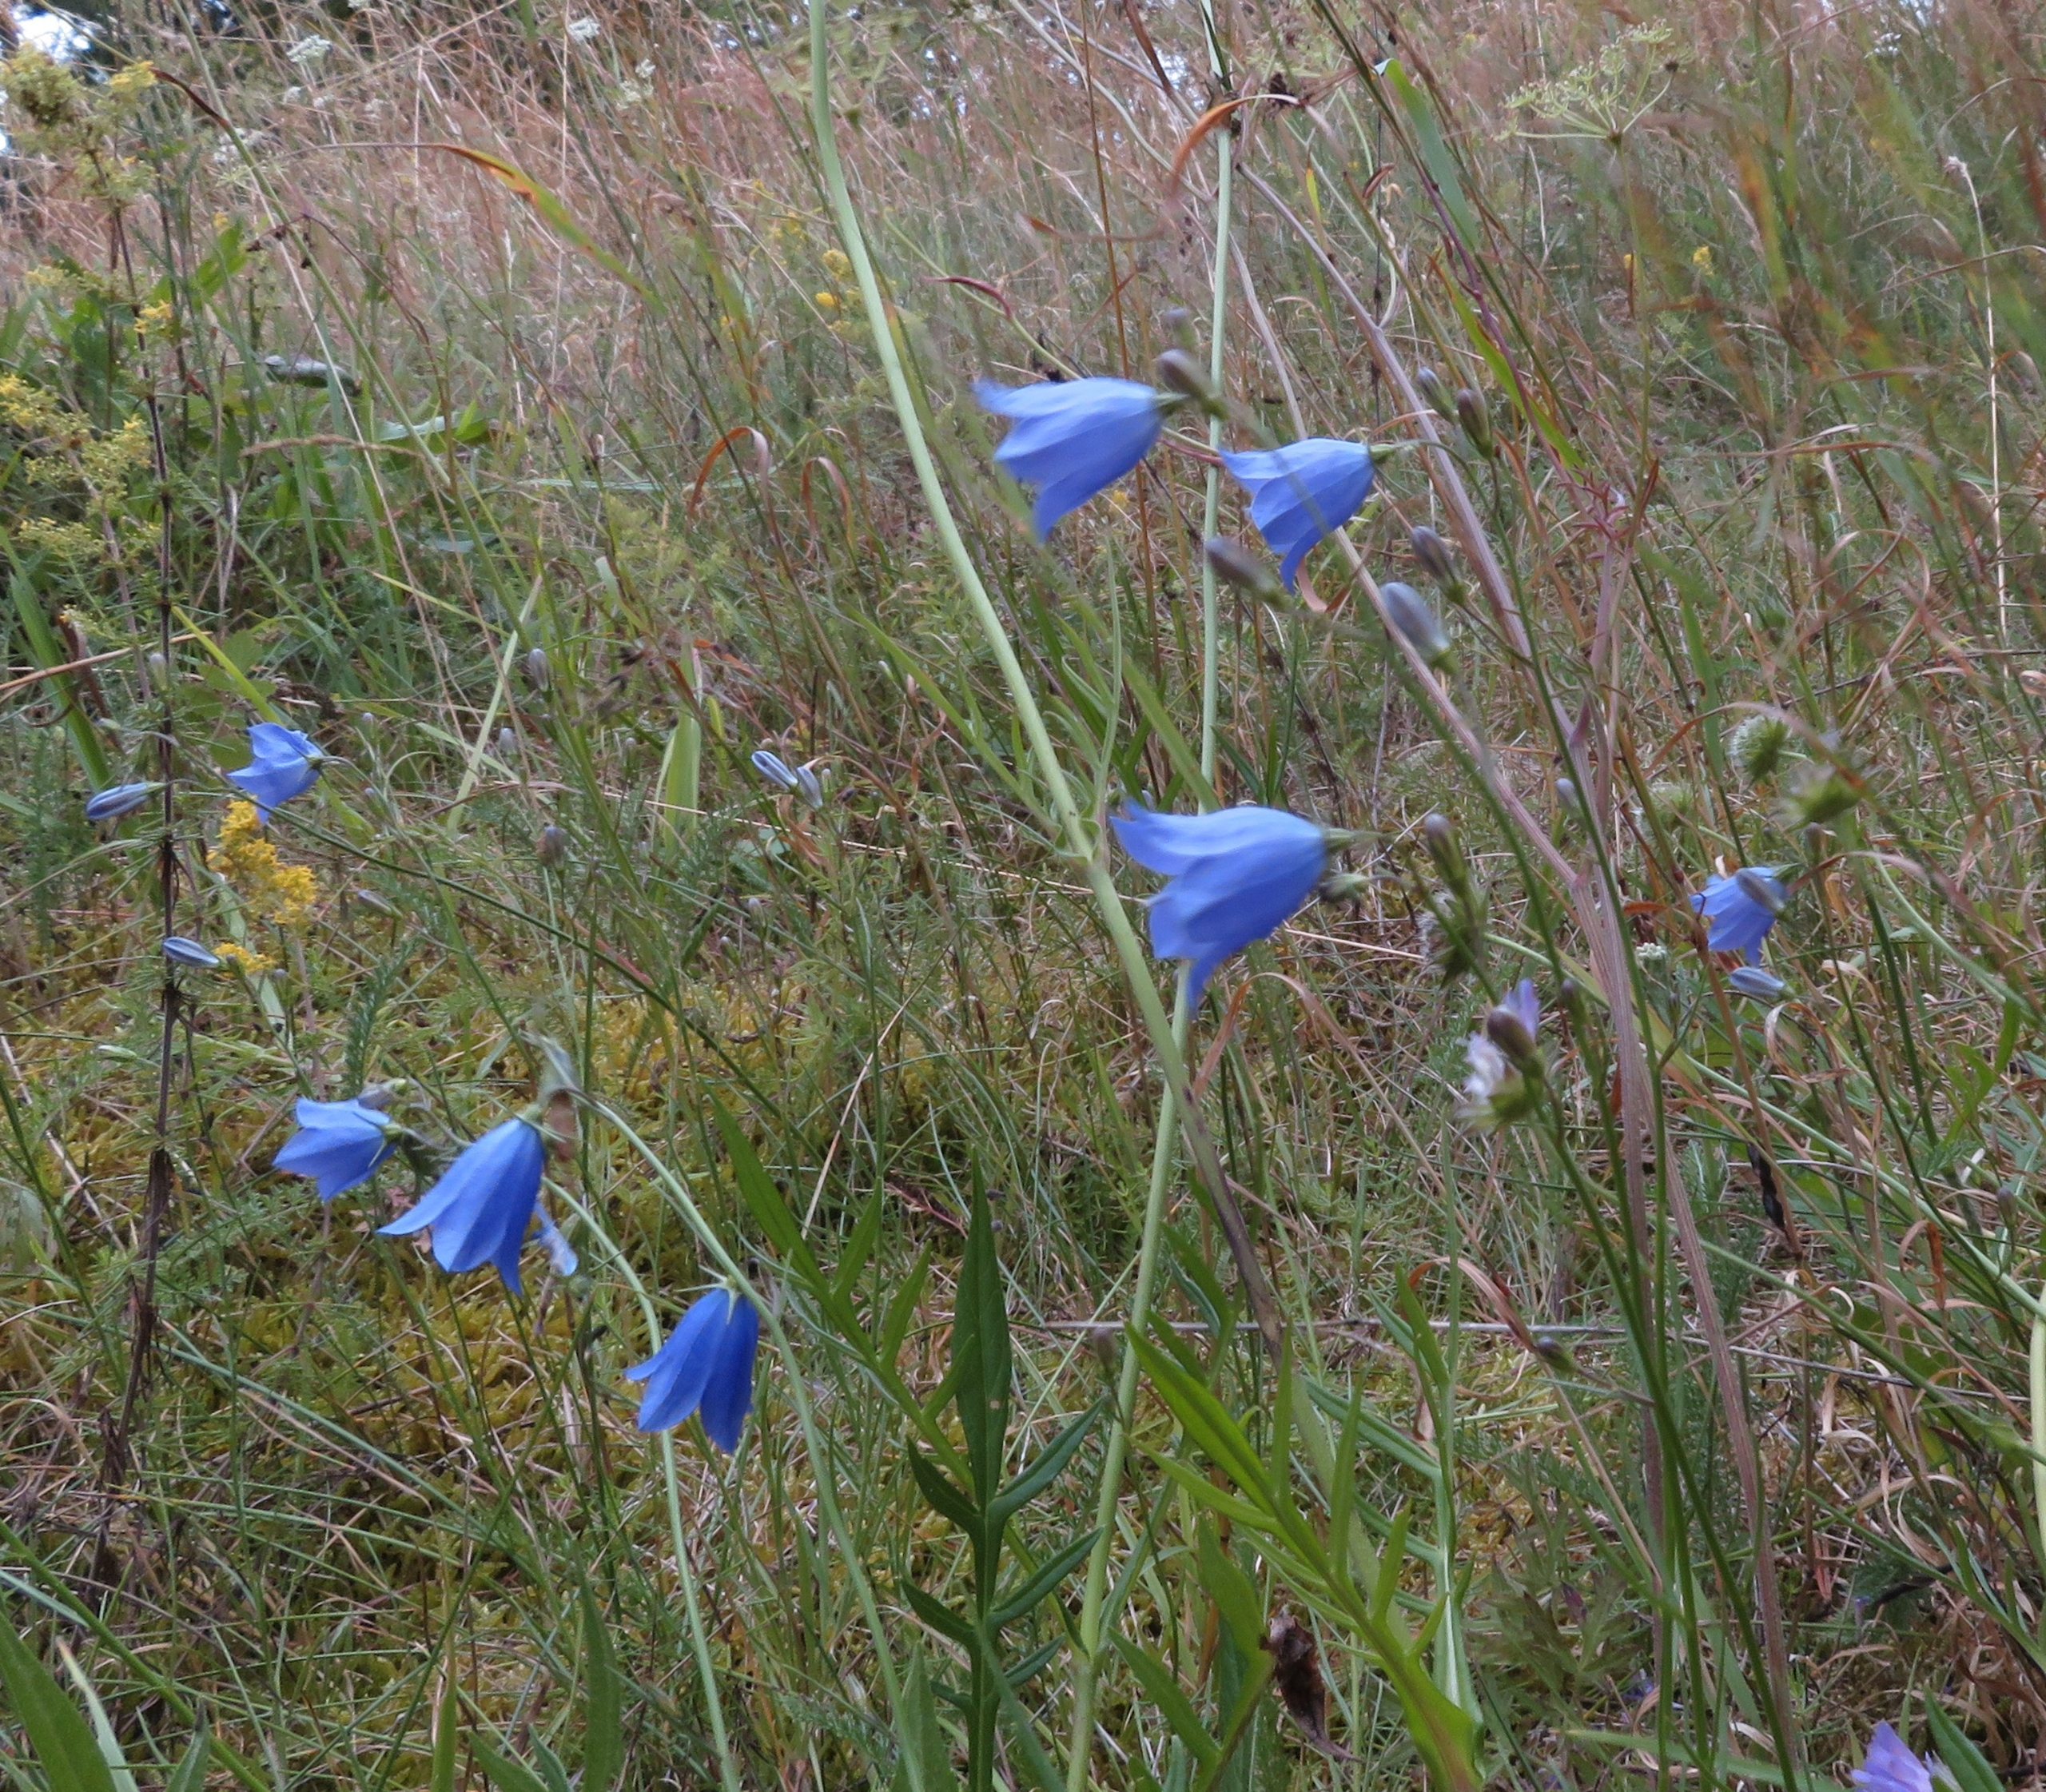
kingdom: Plantae
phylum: Tracheophyta
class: Magnoliopsida
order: Asterales
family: Campanulaceae
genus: Campanula
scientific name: Campanula rotundifolia
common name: Liden klokke
